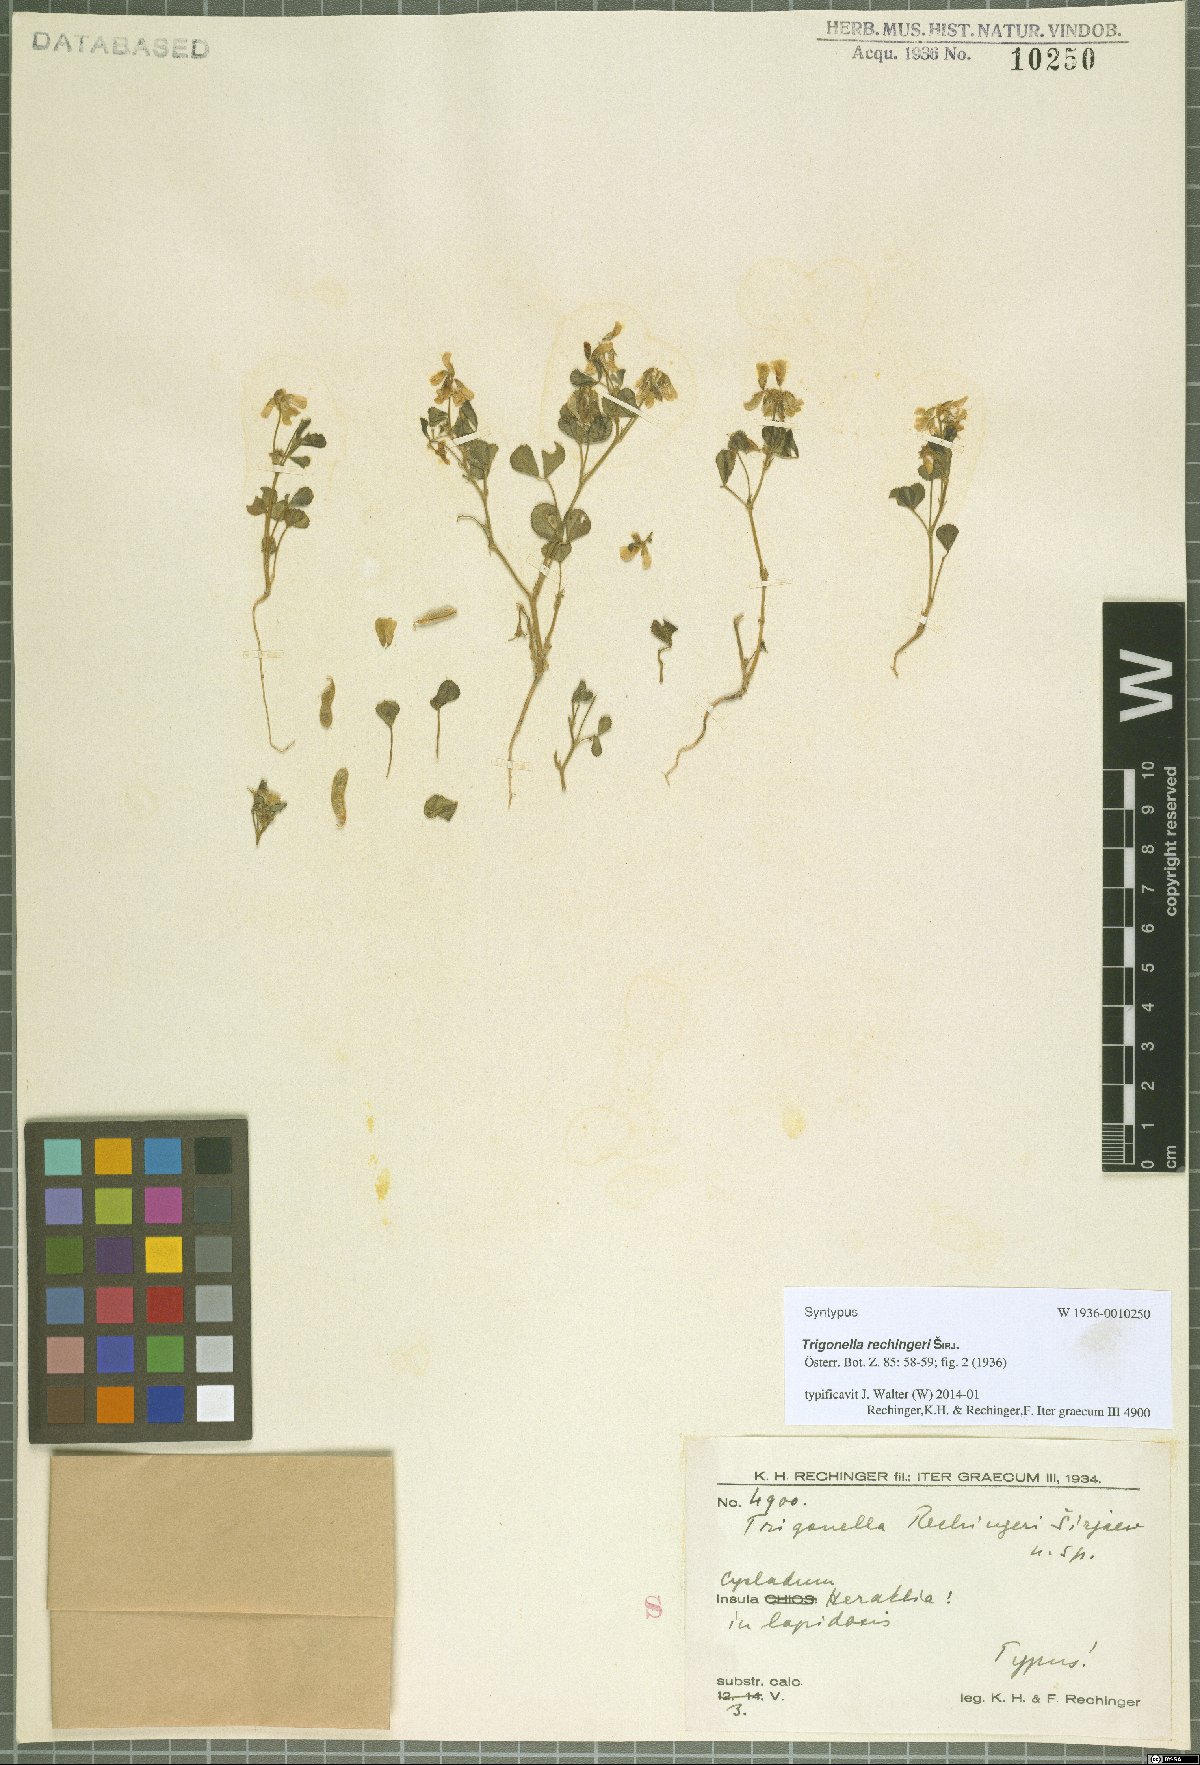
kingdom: Plantae
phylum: Tracheophyta
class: Magnoliopsida
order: Fabales
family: Fabaceae
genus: Trigonella
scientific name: Trigonella rechingeri
